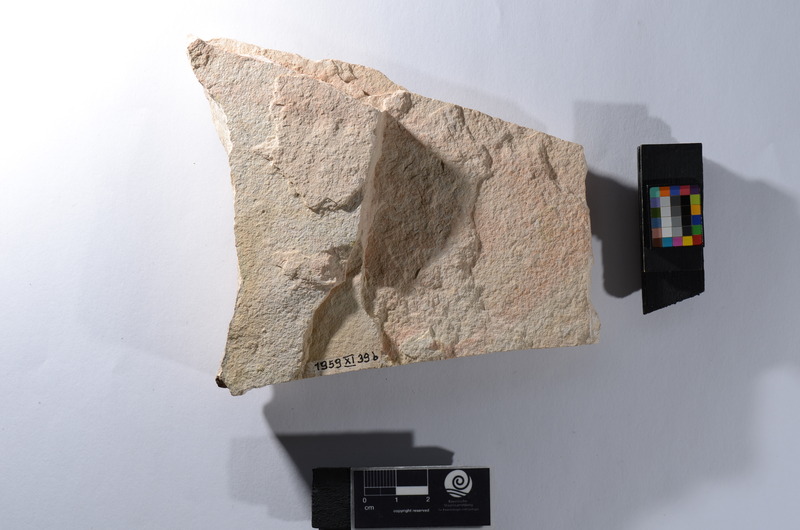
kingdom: Animalia
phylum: Chordata
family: Aspidorhynchidae
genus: Aspidorhynchus
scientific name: Aspidorhynchus
